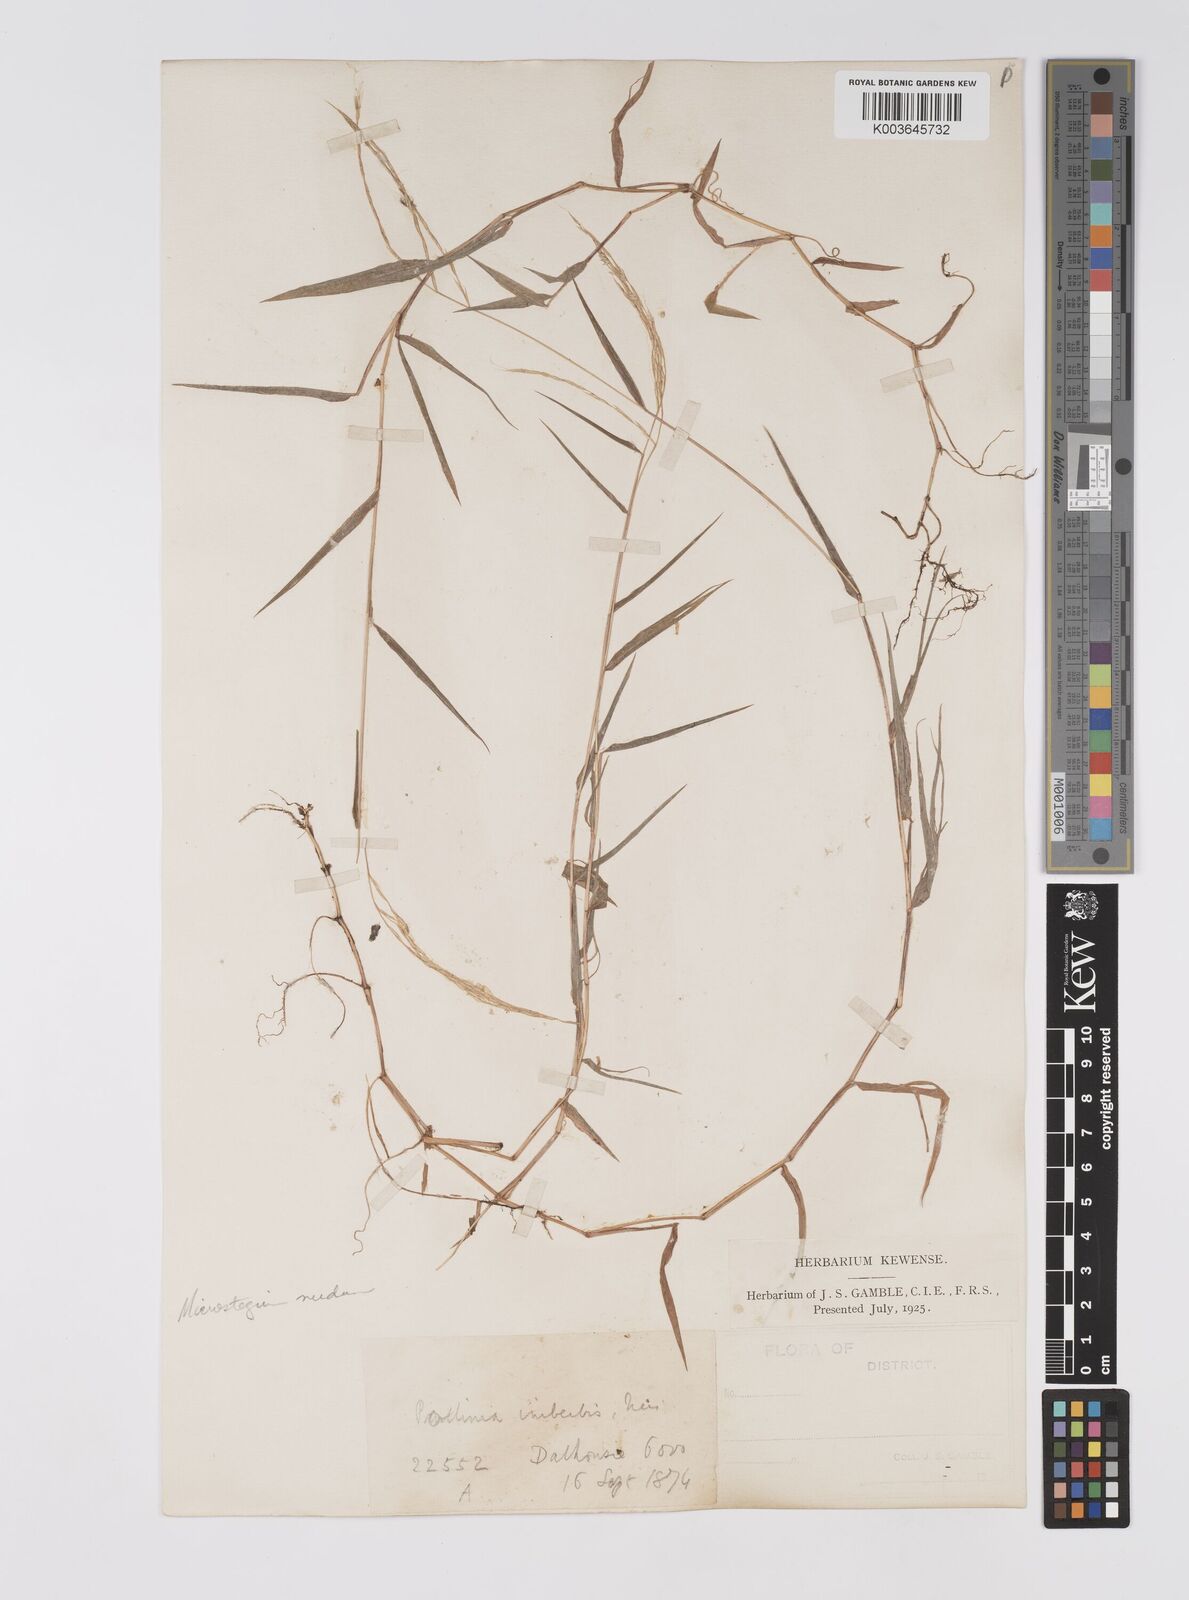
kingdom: Plantae
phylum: Tracheophyta
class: Liliopsida
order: Poales
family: Poaceae
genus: Microstegium
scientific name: Microstegium nudum
